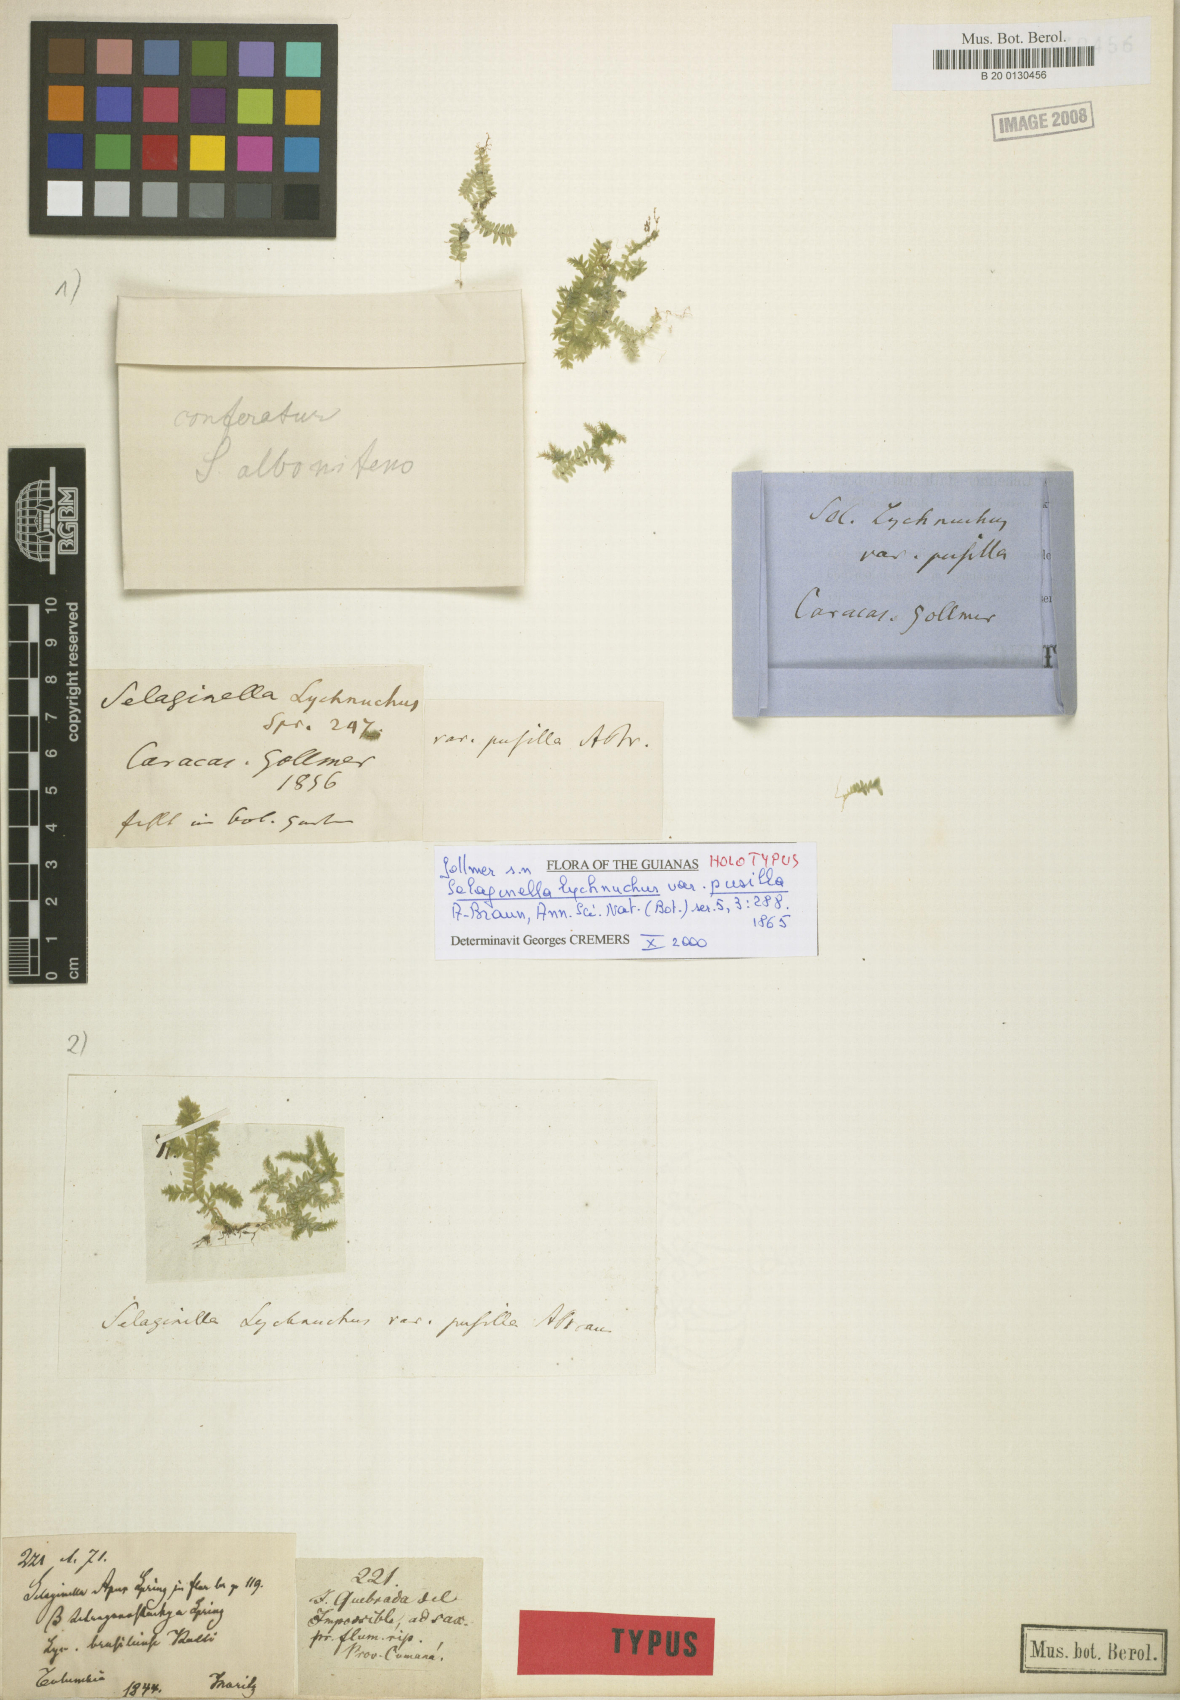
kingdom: Plantae
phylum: Tracheophyta
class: Lycopodiopsida
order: Selaginellales
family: Selaginellaceae
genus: Selaginella
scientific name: Selaginella lychnuchus
